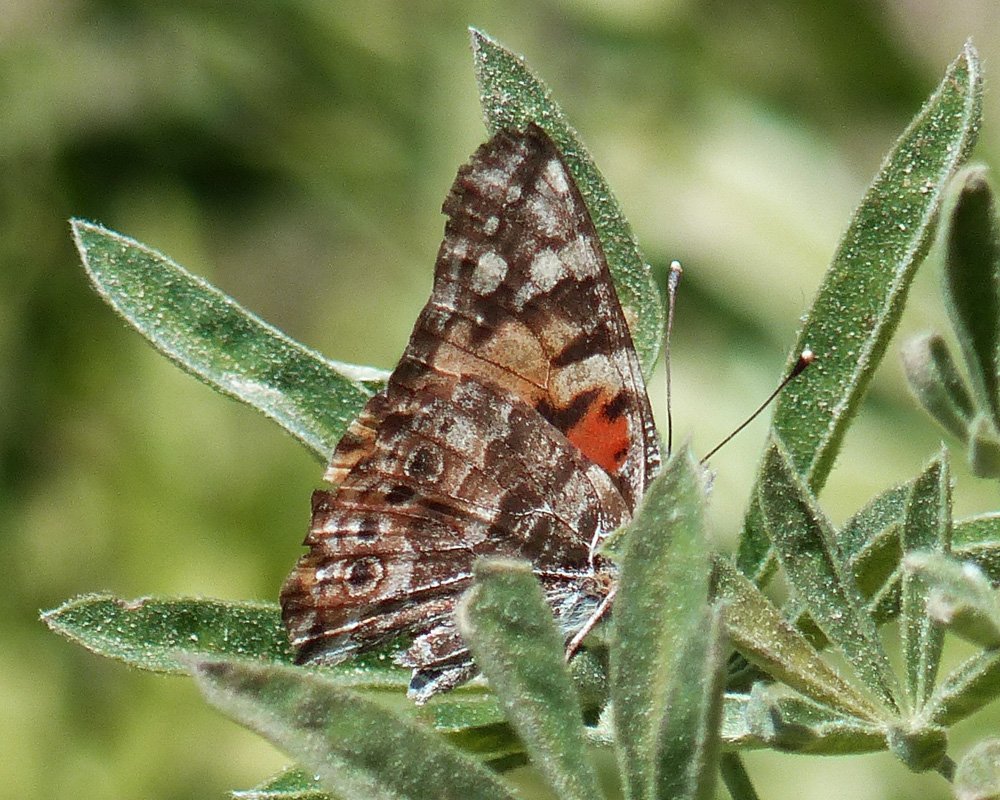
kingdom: Animalia
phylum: Arthropoda
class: Insecta
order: Lepidoptera
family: Nymphalidae
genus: Vanessa
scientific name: Vanessa cardui
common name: Painted Lady
